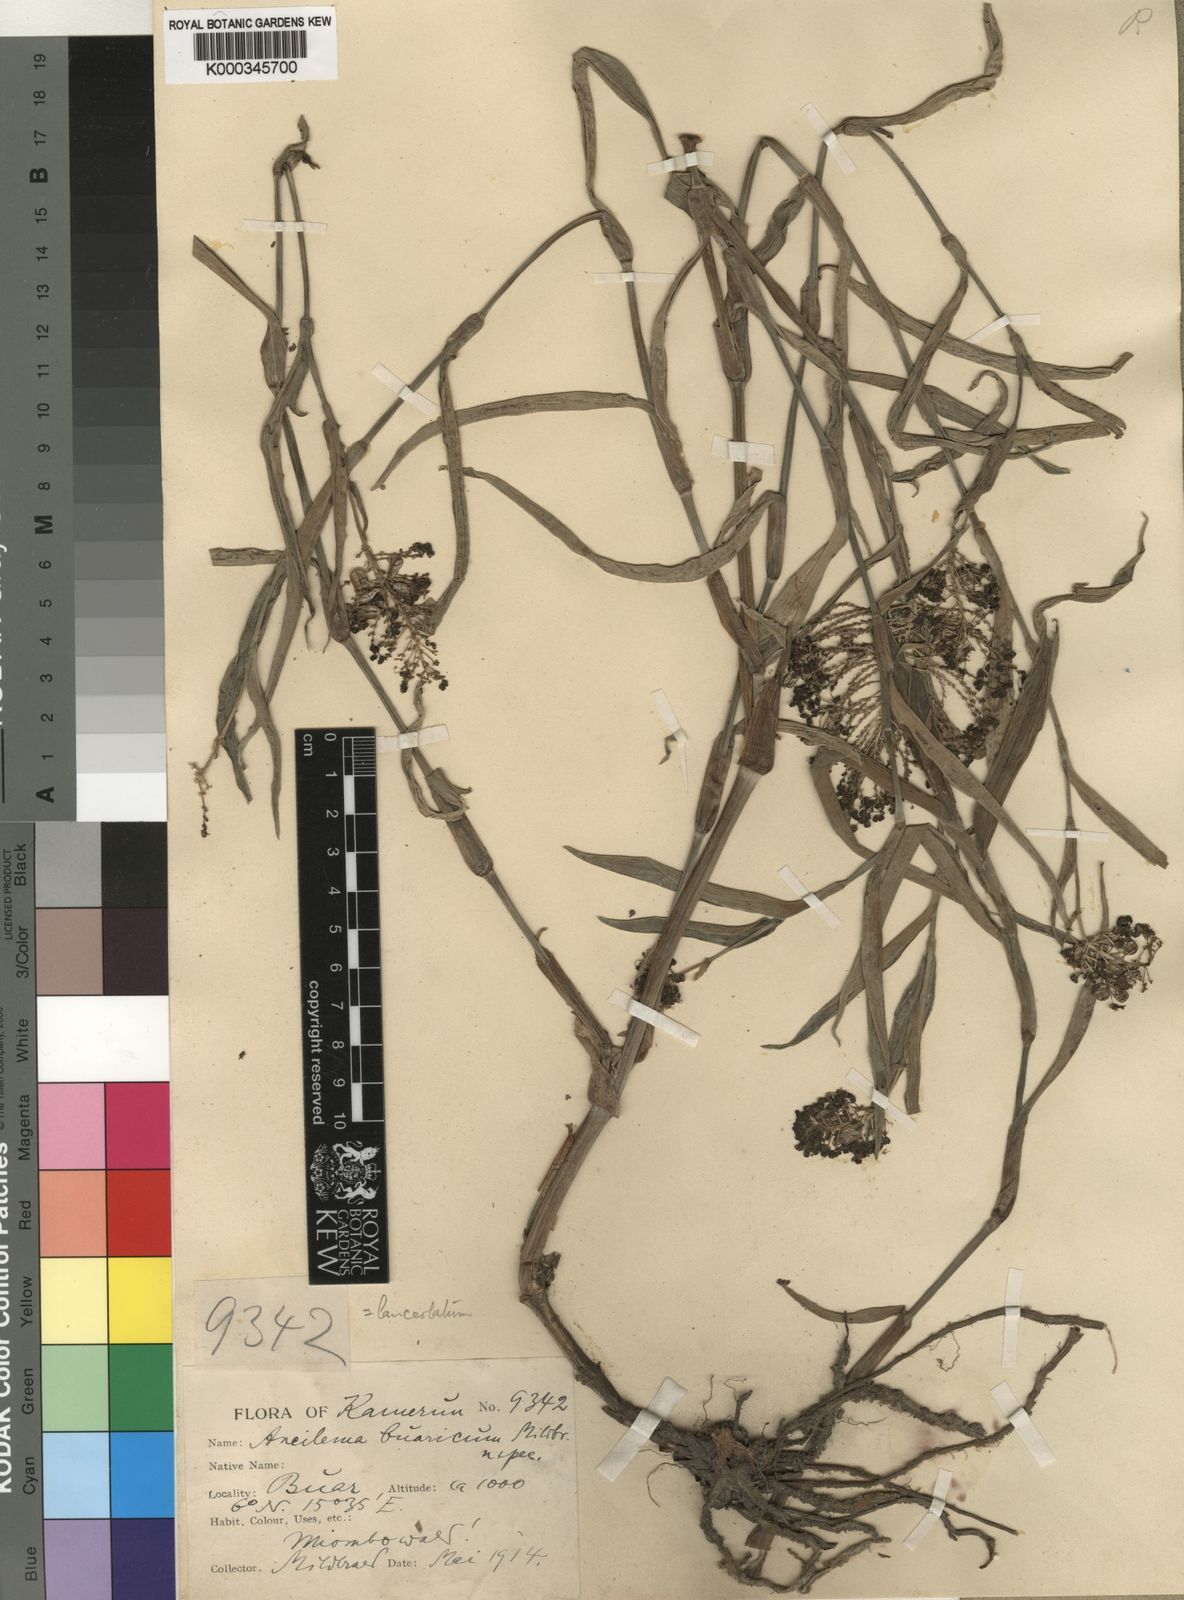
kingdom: Plantae
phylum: Tracheophyta
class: Liliopsida
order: Commelinales
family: Commelinaceae
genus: Aneilema
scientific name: Aneilema
